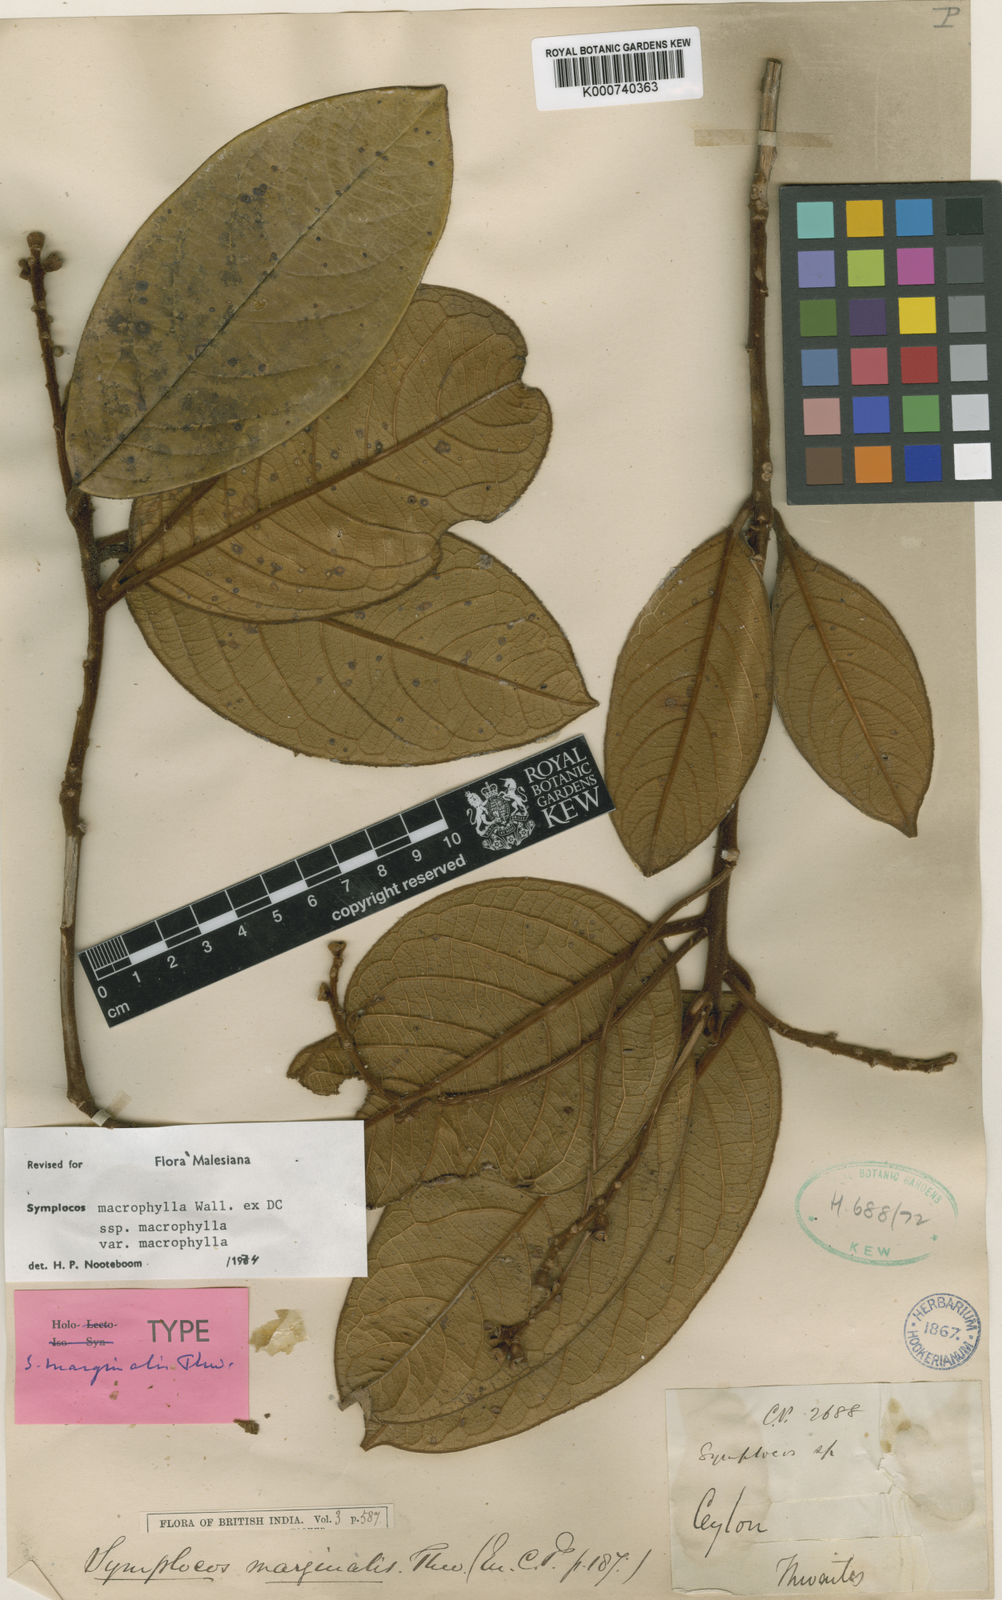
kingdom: Plantae
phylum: Tracheophyta
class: Magnoliopsida
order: Ericales
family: Symplocaceae
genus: Symplocos
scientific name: Symplocos
